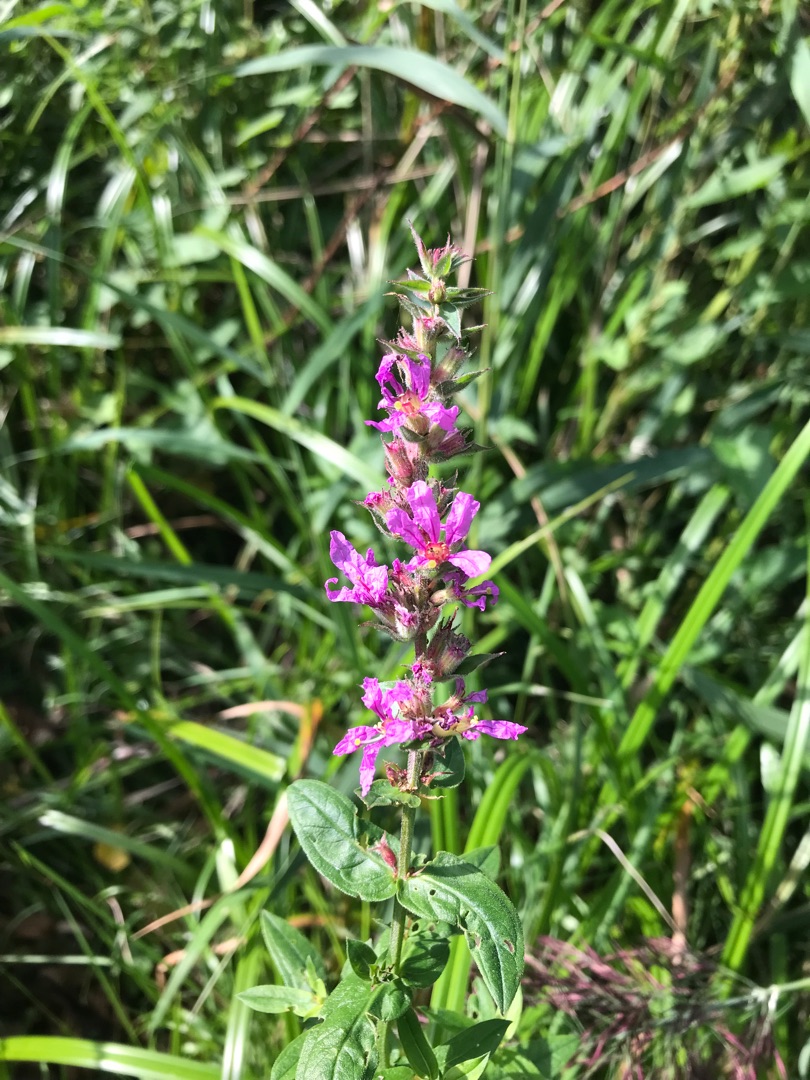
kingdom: Plantae
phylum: Tracheophyta
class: Magnoliopsida
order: Myrtales
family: Lythraceae
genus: Lythrum
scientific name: Lythrum salicaria
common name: Kattehale
